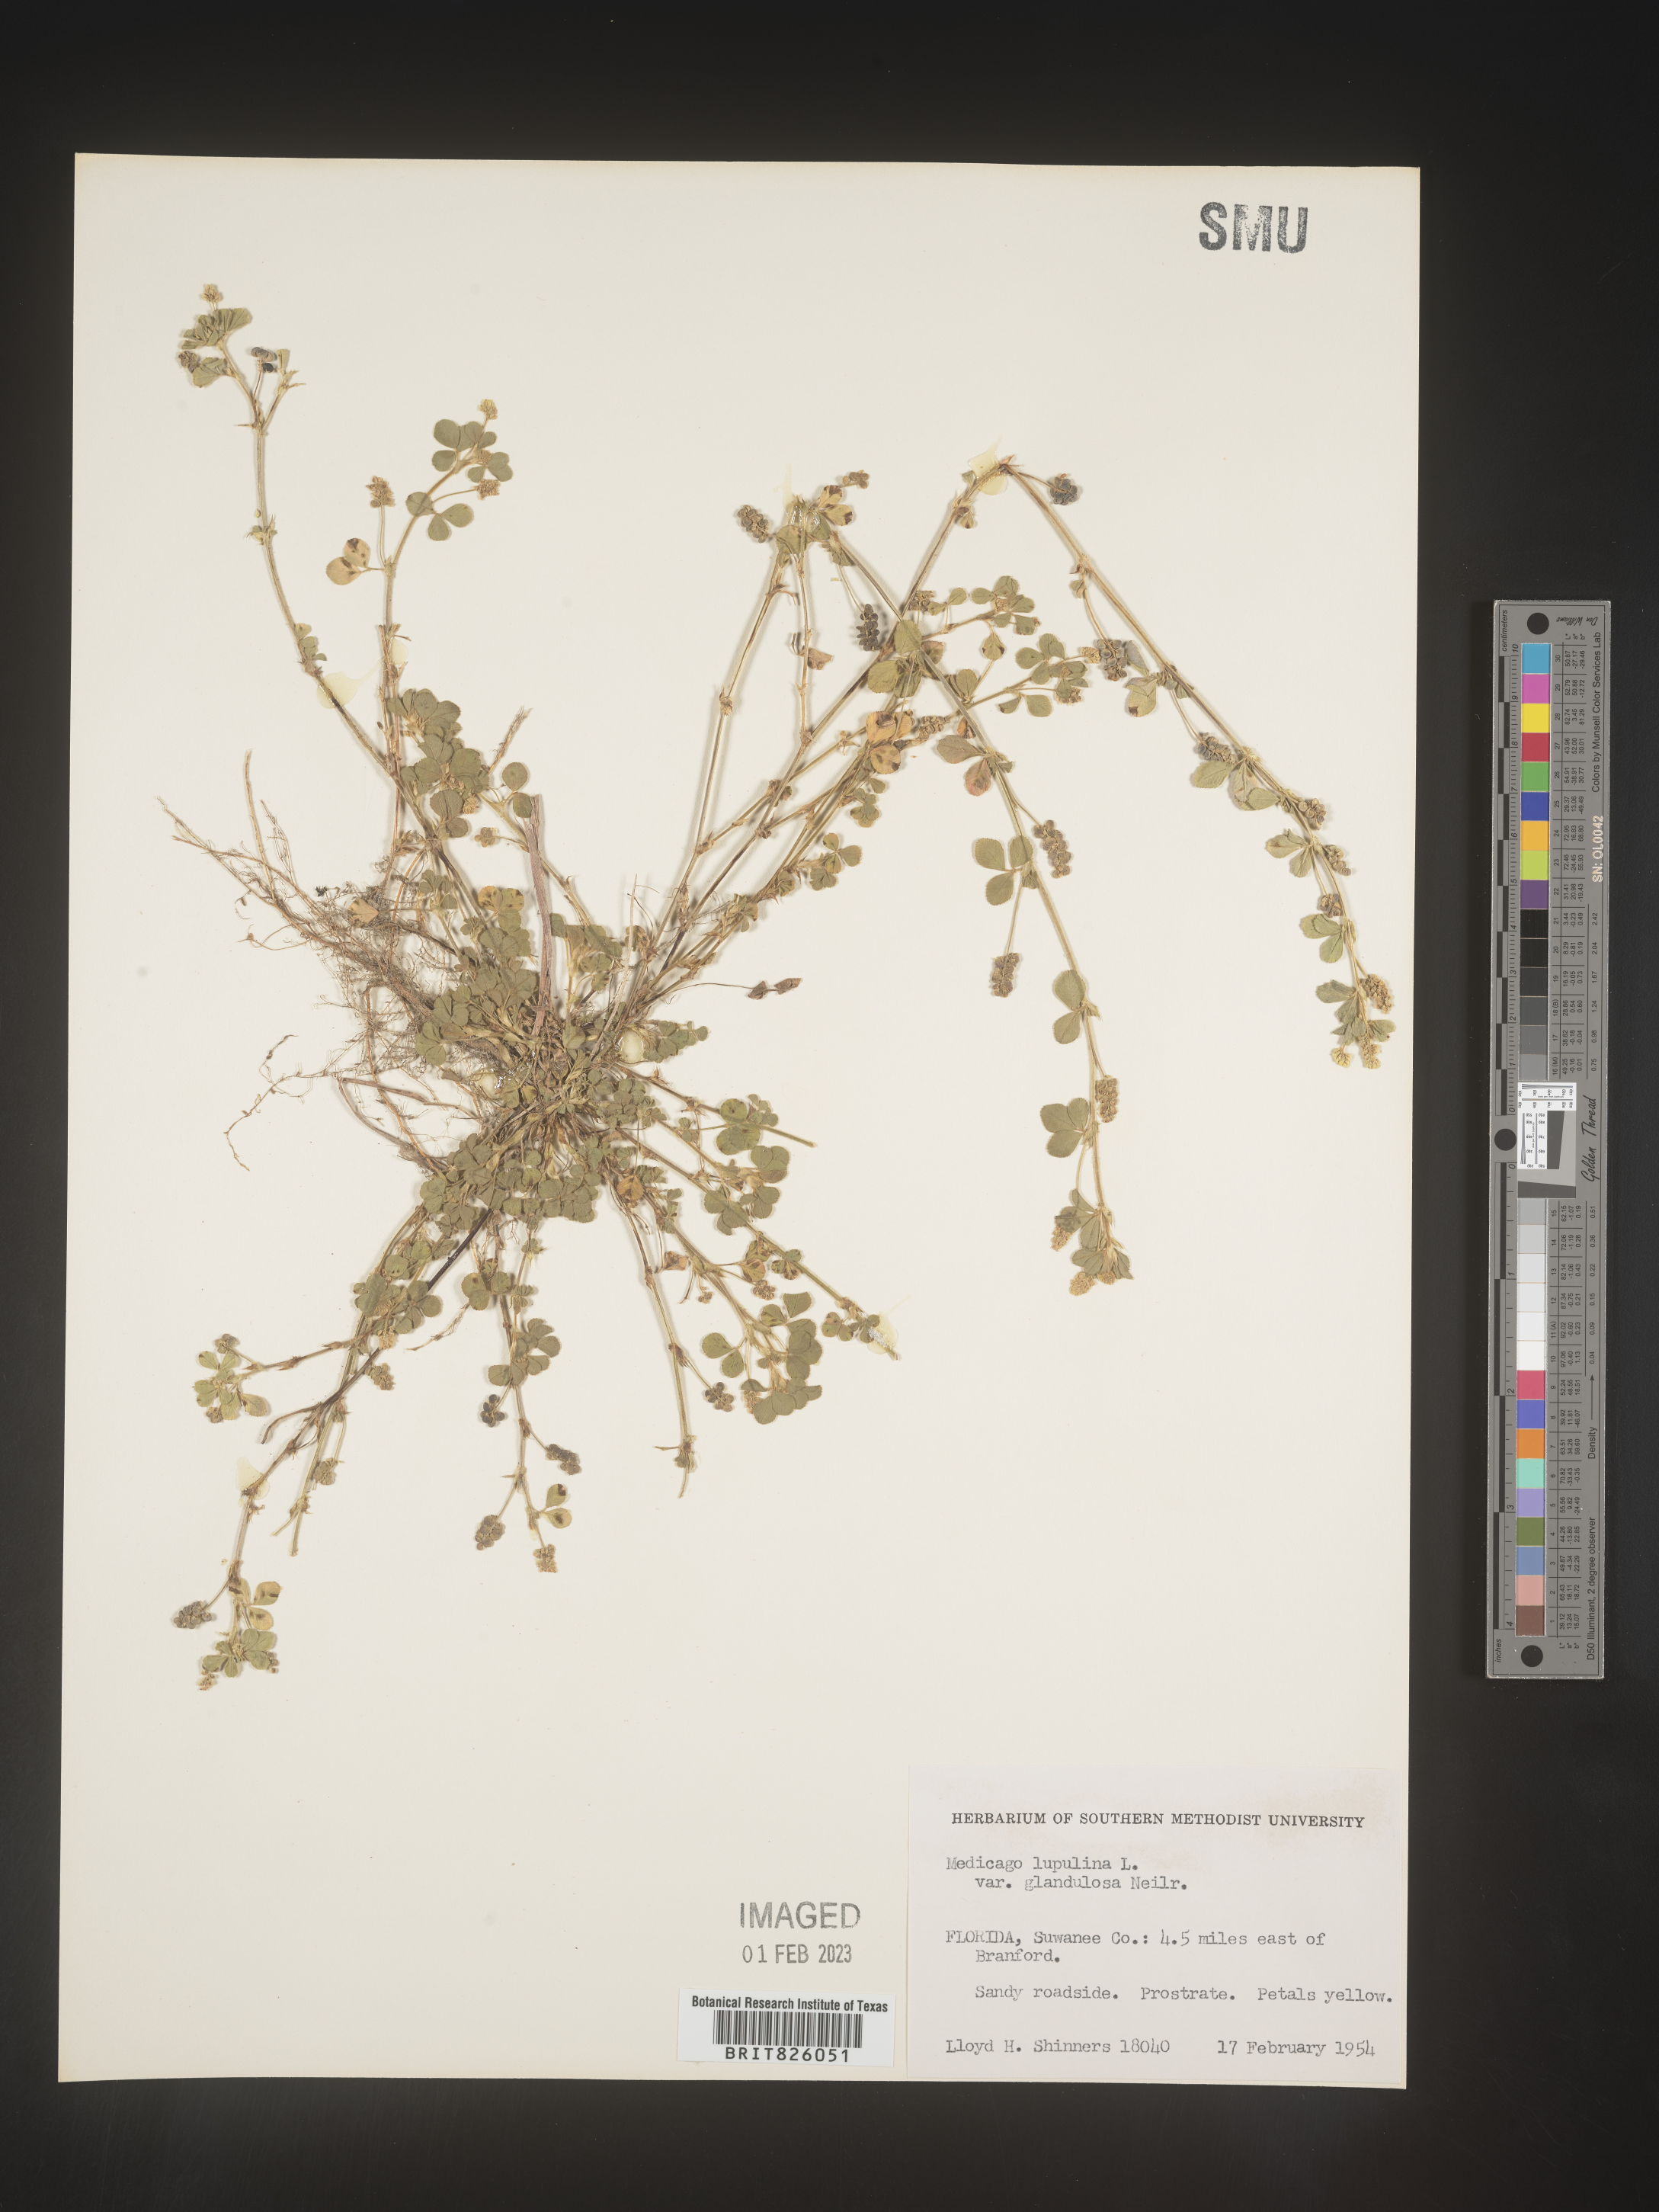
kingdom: Plantae
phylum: Tracheophyta
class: Magnoliopsida
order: Fabales
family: Fabaceae
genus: Medicago
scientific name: Medicago lupulina
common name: Black medick
